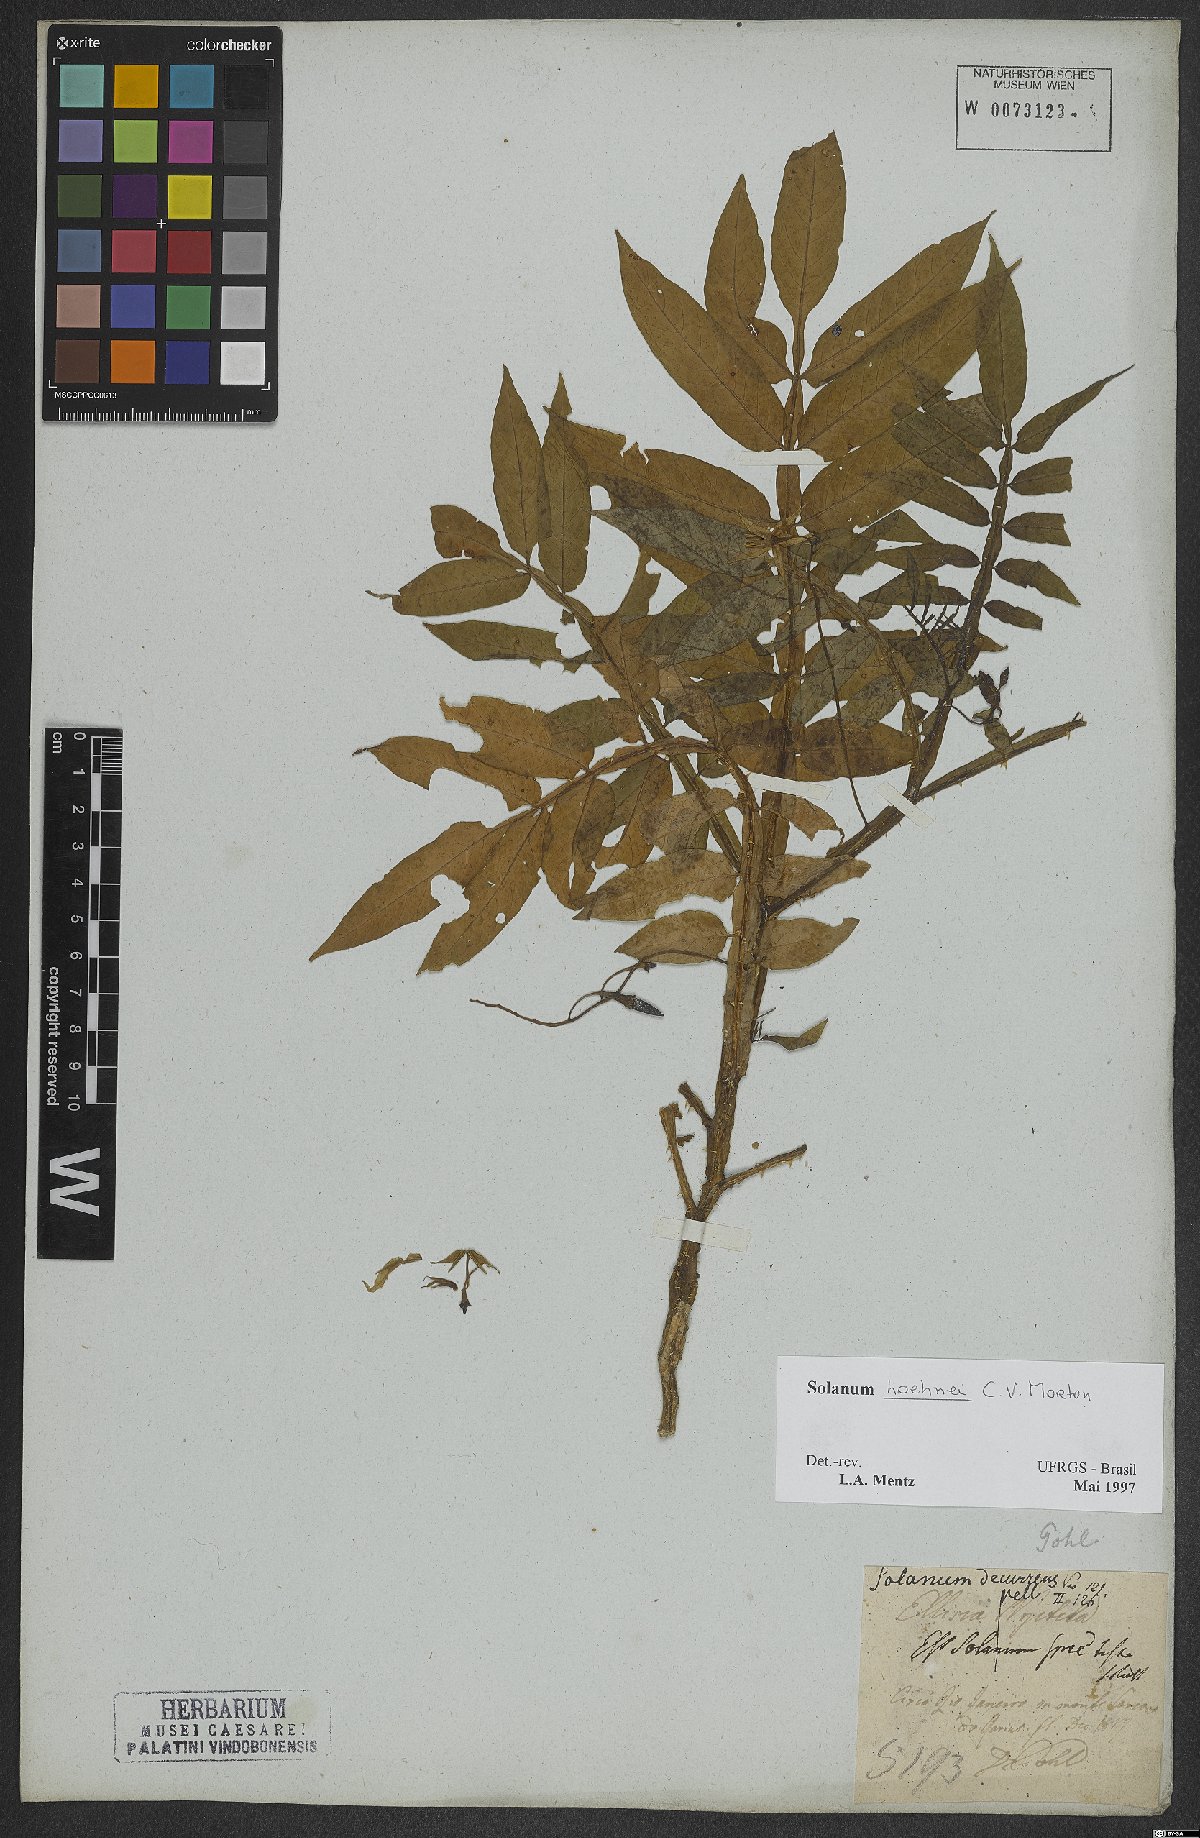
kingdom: Plantae
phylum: Tracheophyta
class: Magnoliopsida
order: Solanales
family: Solanaceae
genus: Solanum
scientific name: Solanum hoehnei
